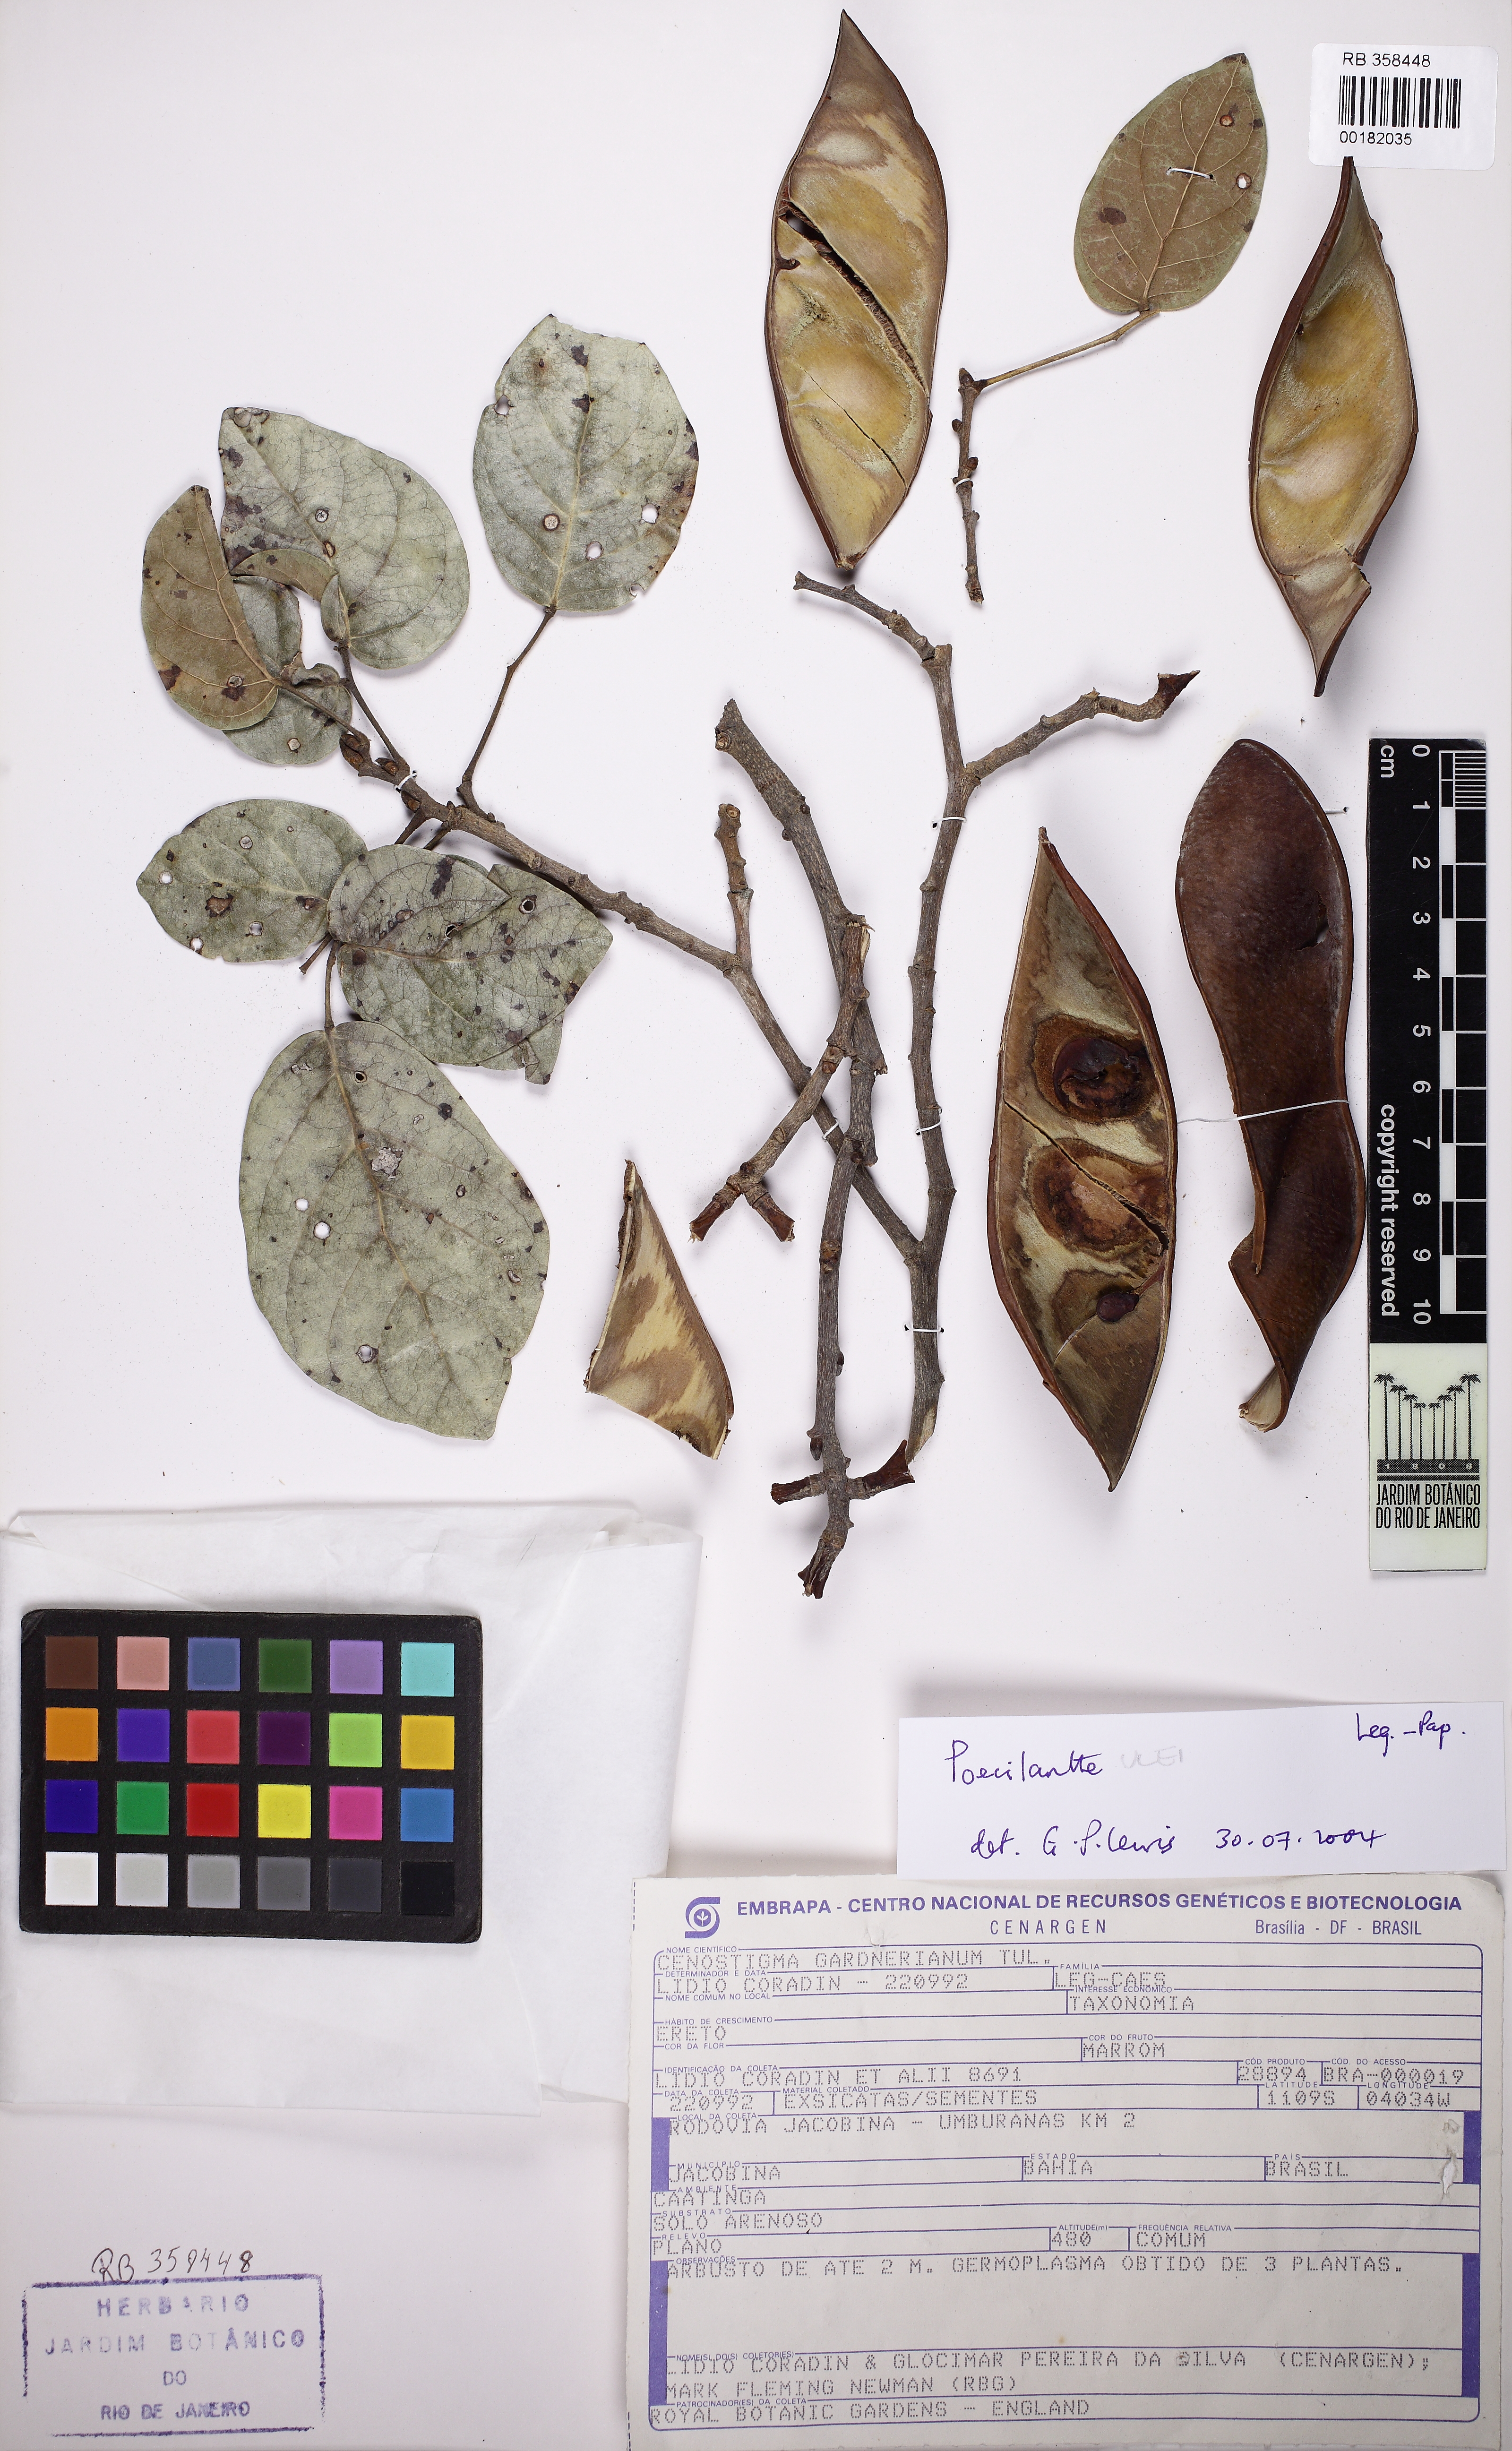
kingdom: Plantae
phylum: Tracheophyta
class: Magnoliopsida
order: Fabales
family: Fabaceae
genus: Poecilanthe
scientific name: Poecilanthe ulei
